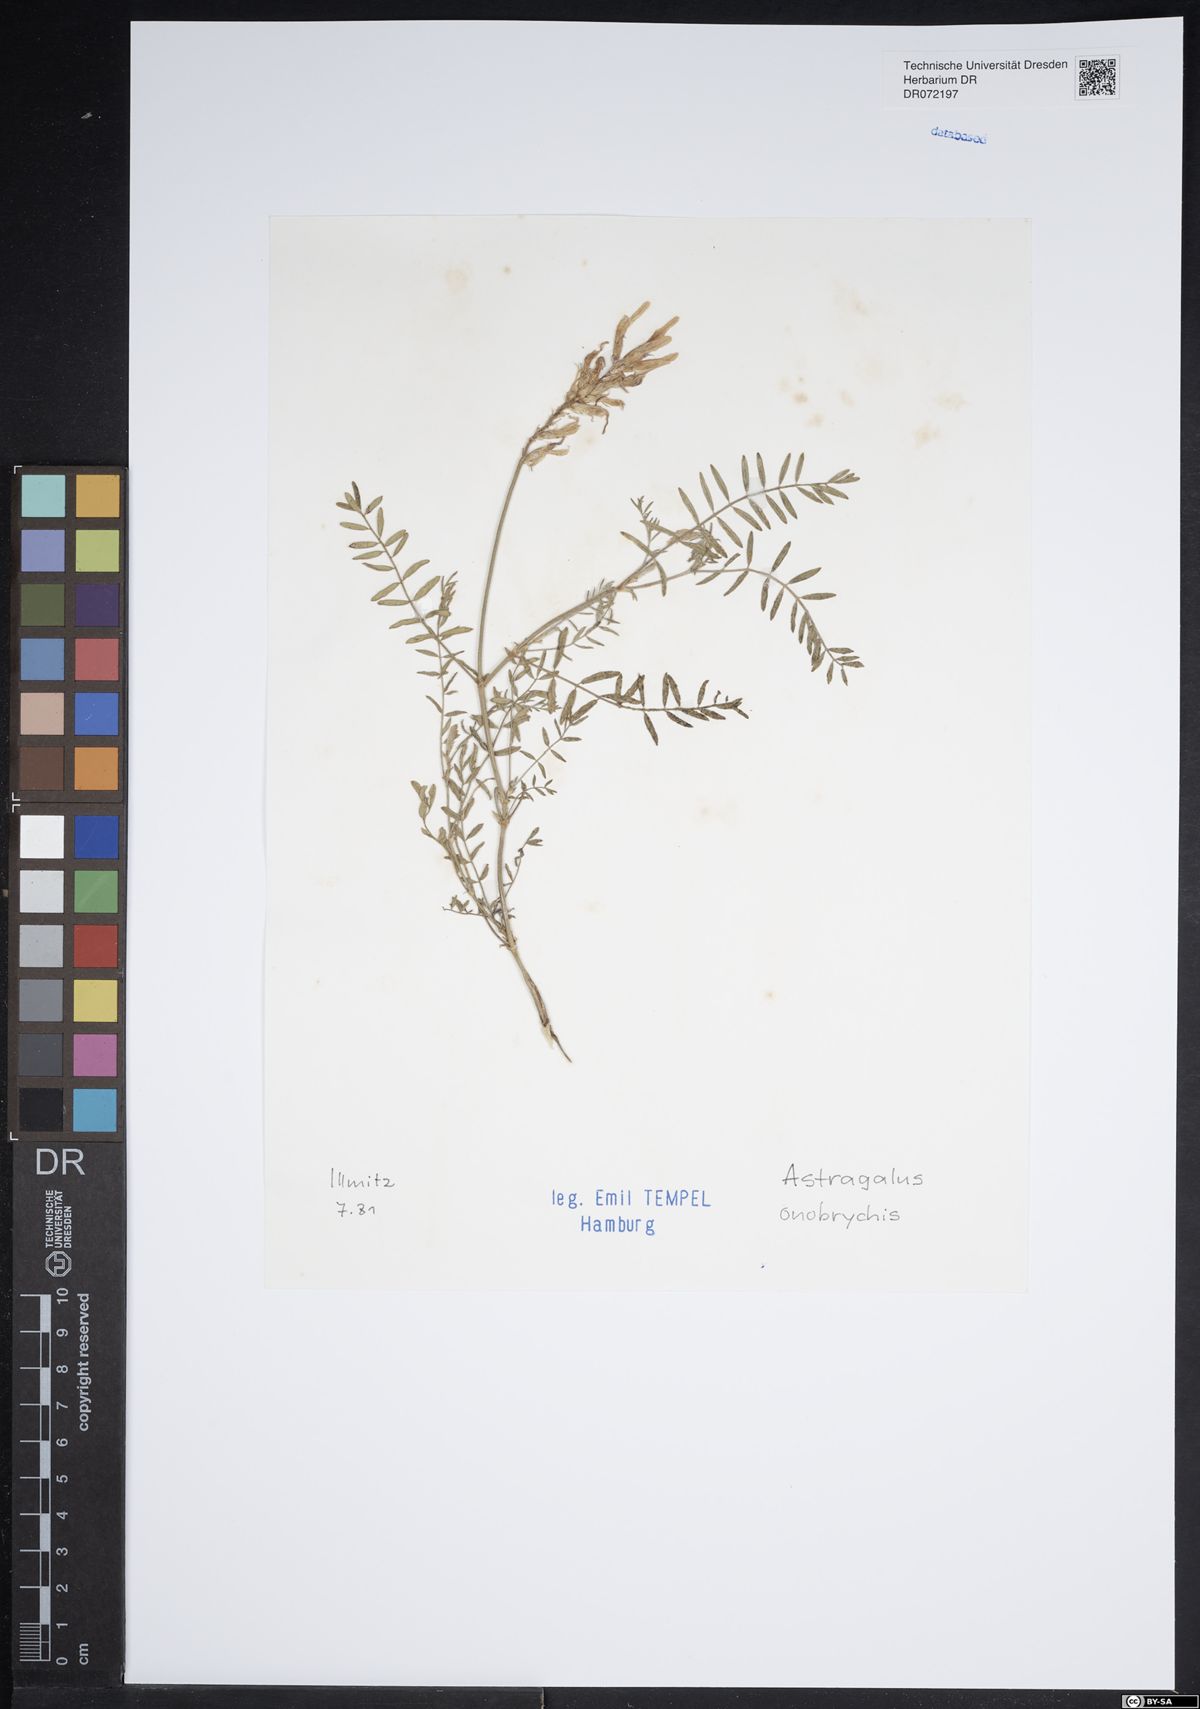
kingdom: Plantae
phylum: Tracheophyta
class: Magnoliopsida
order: Fabales
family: Fabaceae
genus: Astragalus
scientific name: Astragalus onobrychis
